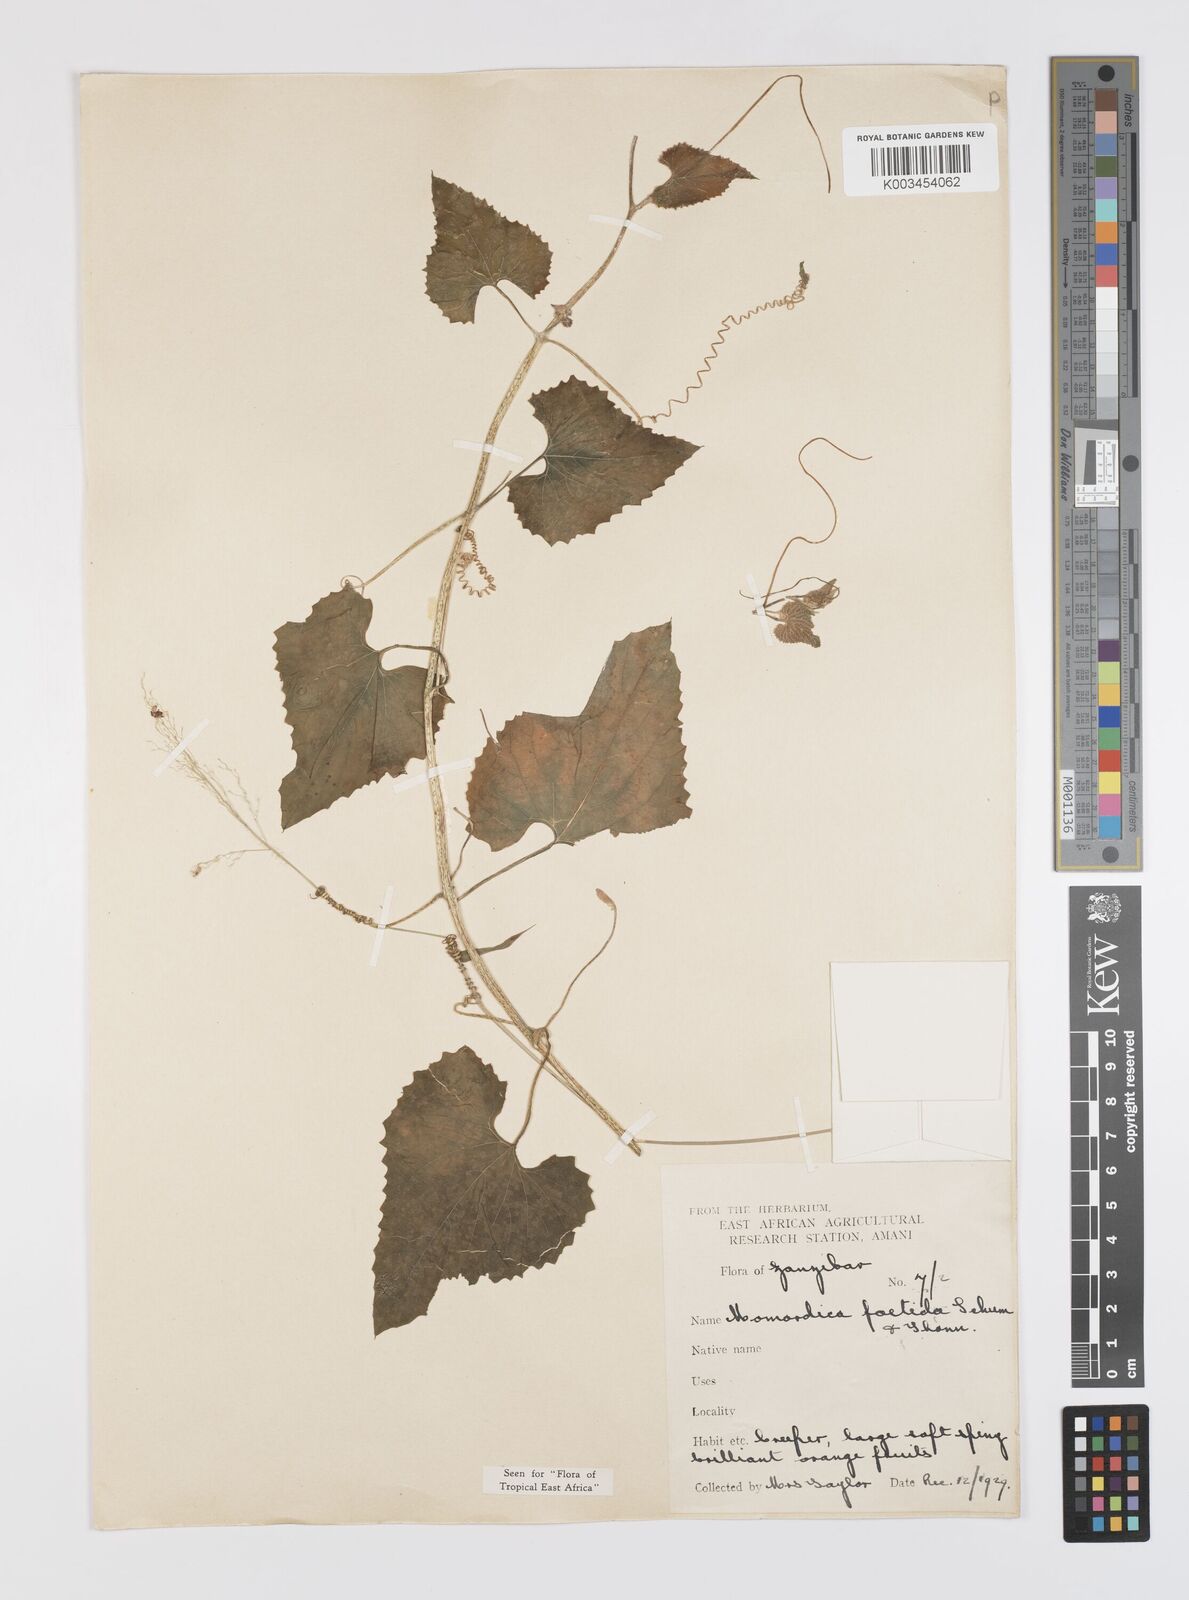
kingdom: Plantae
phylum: Tracheophyta
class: Magnoliopsida
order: Cucurbitales
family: Cucurbitaceae
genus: Momordica
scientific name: Momordica foetida
